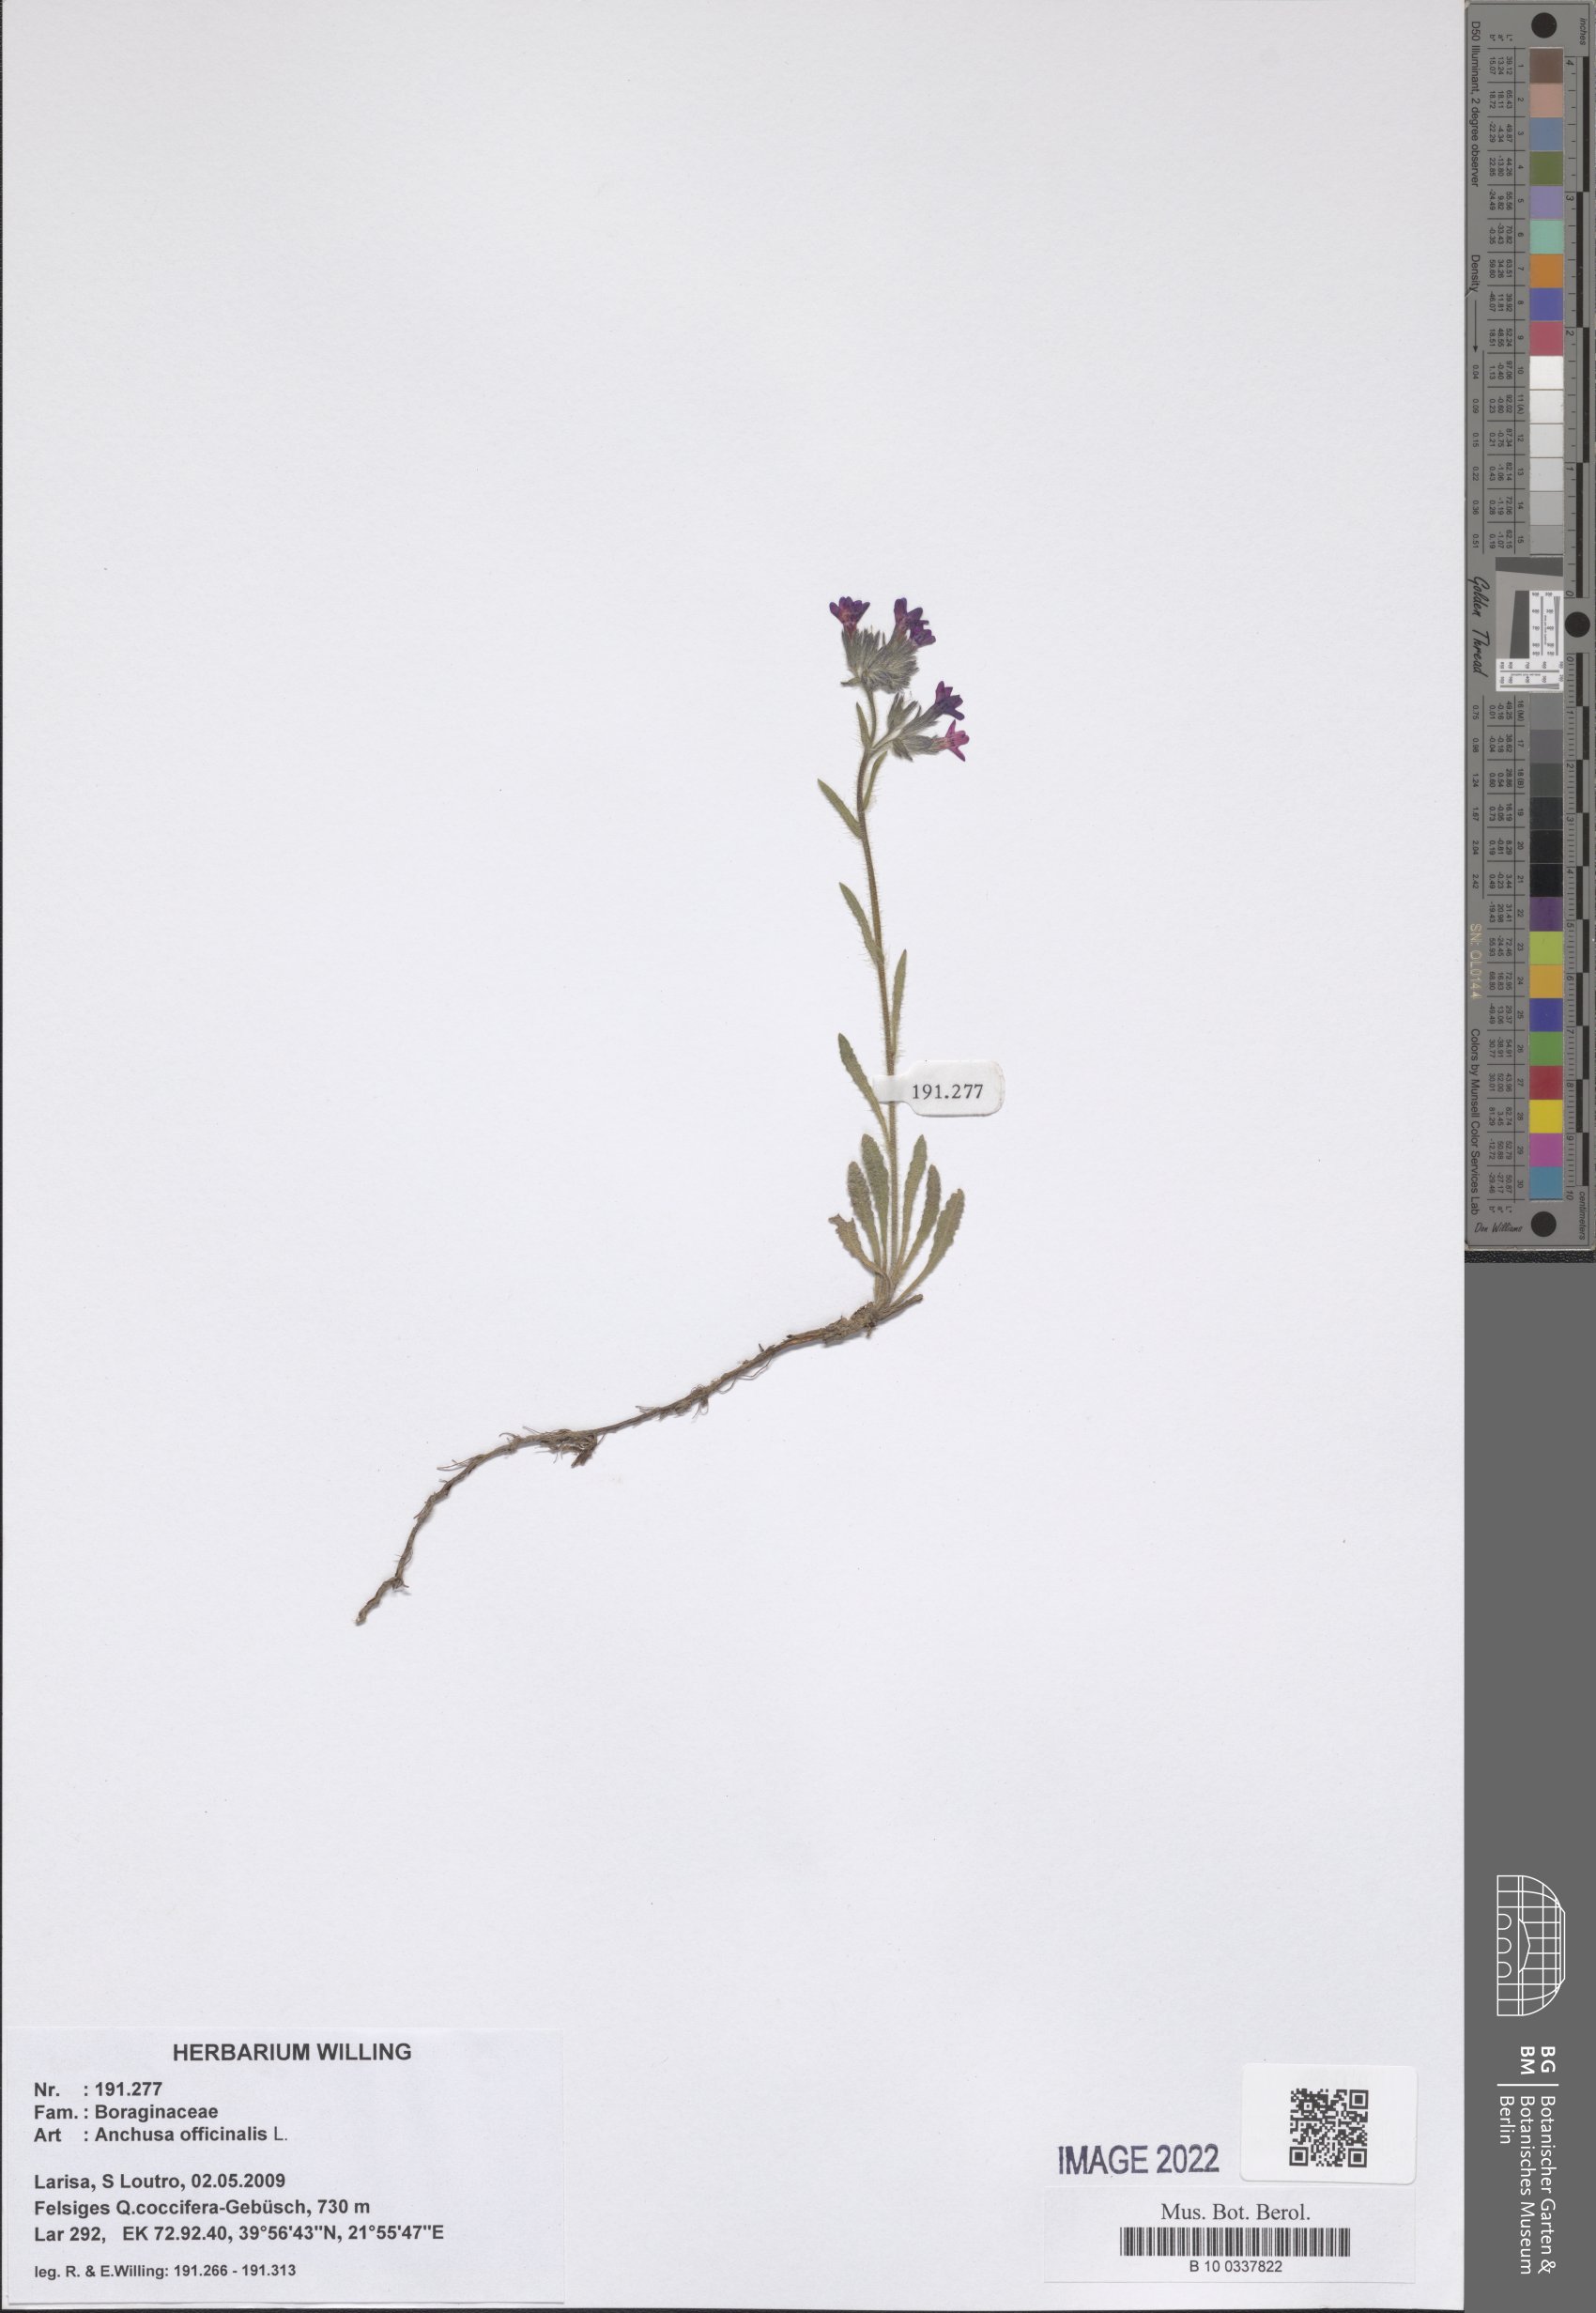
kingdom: Plantae
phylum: Tracheophyta
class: Magnoliopsida
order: Boraginales
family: Boraginaceae
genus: Anchusa
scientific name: Anchusa officinalis
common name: Alkanet
